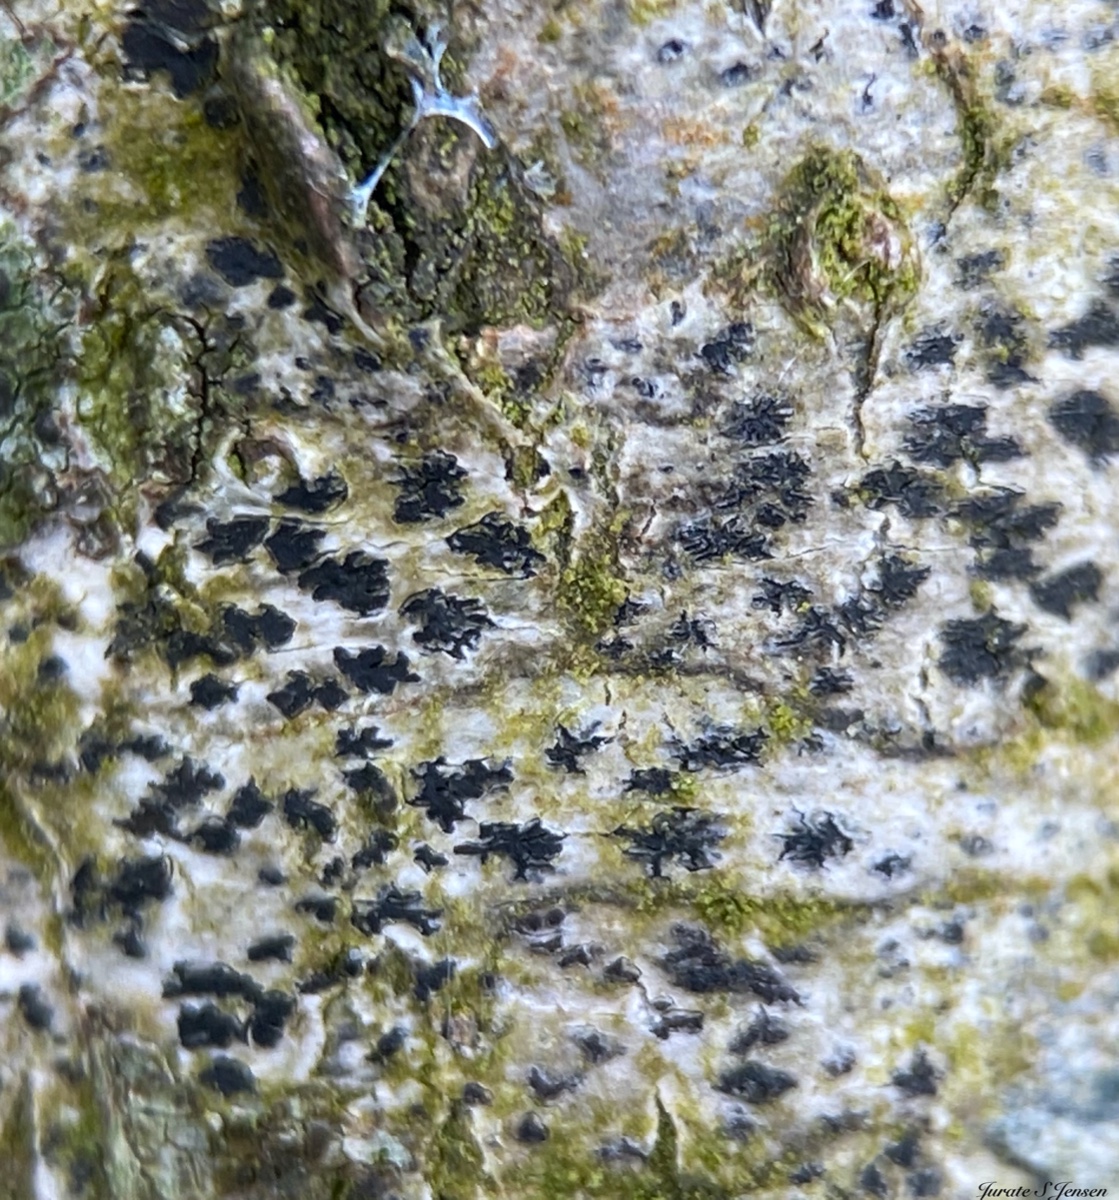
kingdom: Fungi
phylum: Ascomycota
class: Arthoniomycetes
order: Arthoniales
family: Arthoniaceae
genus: Arthonia
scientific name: Arthonia radiata
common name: stjerne-pletlav
